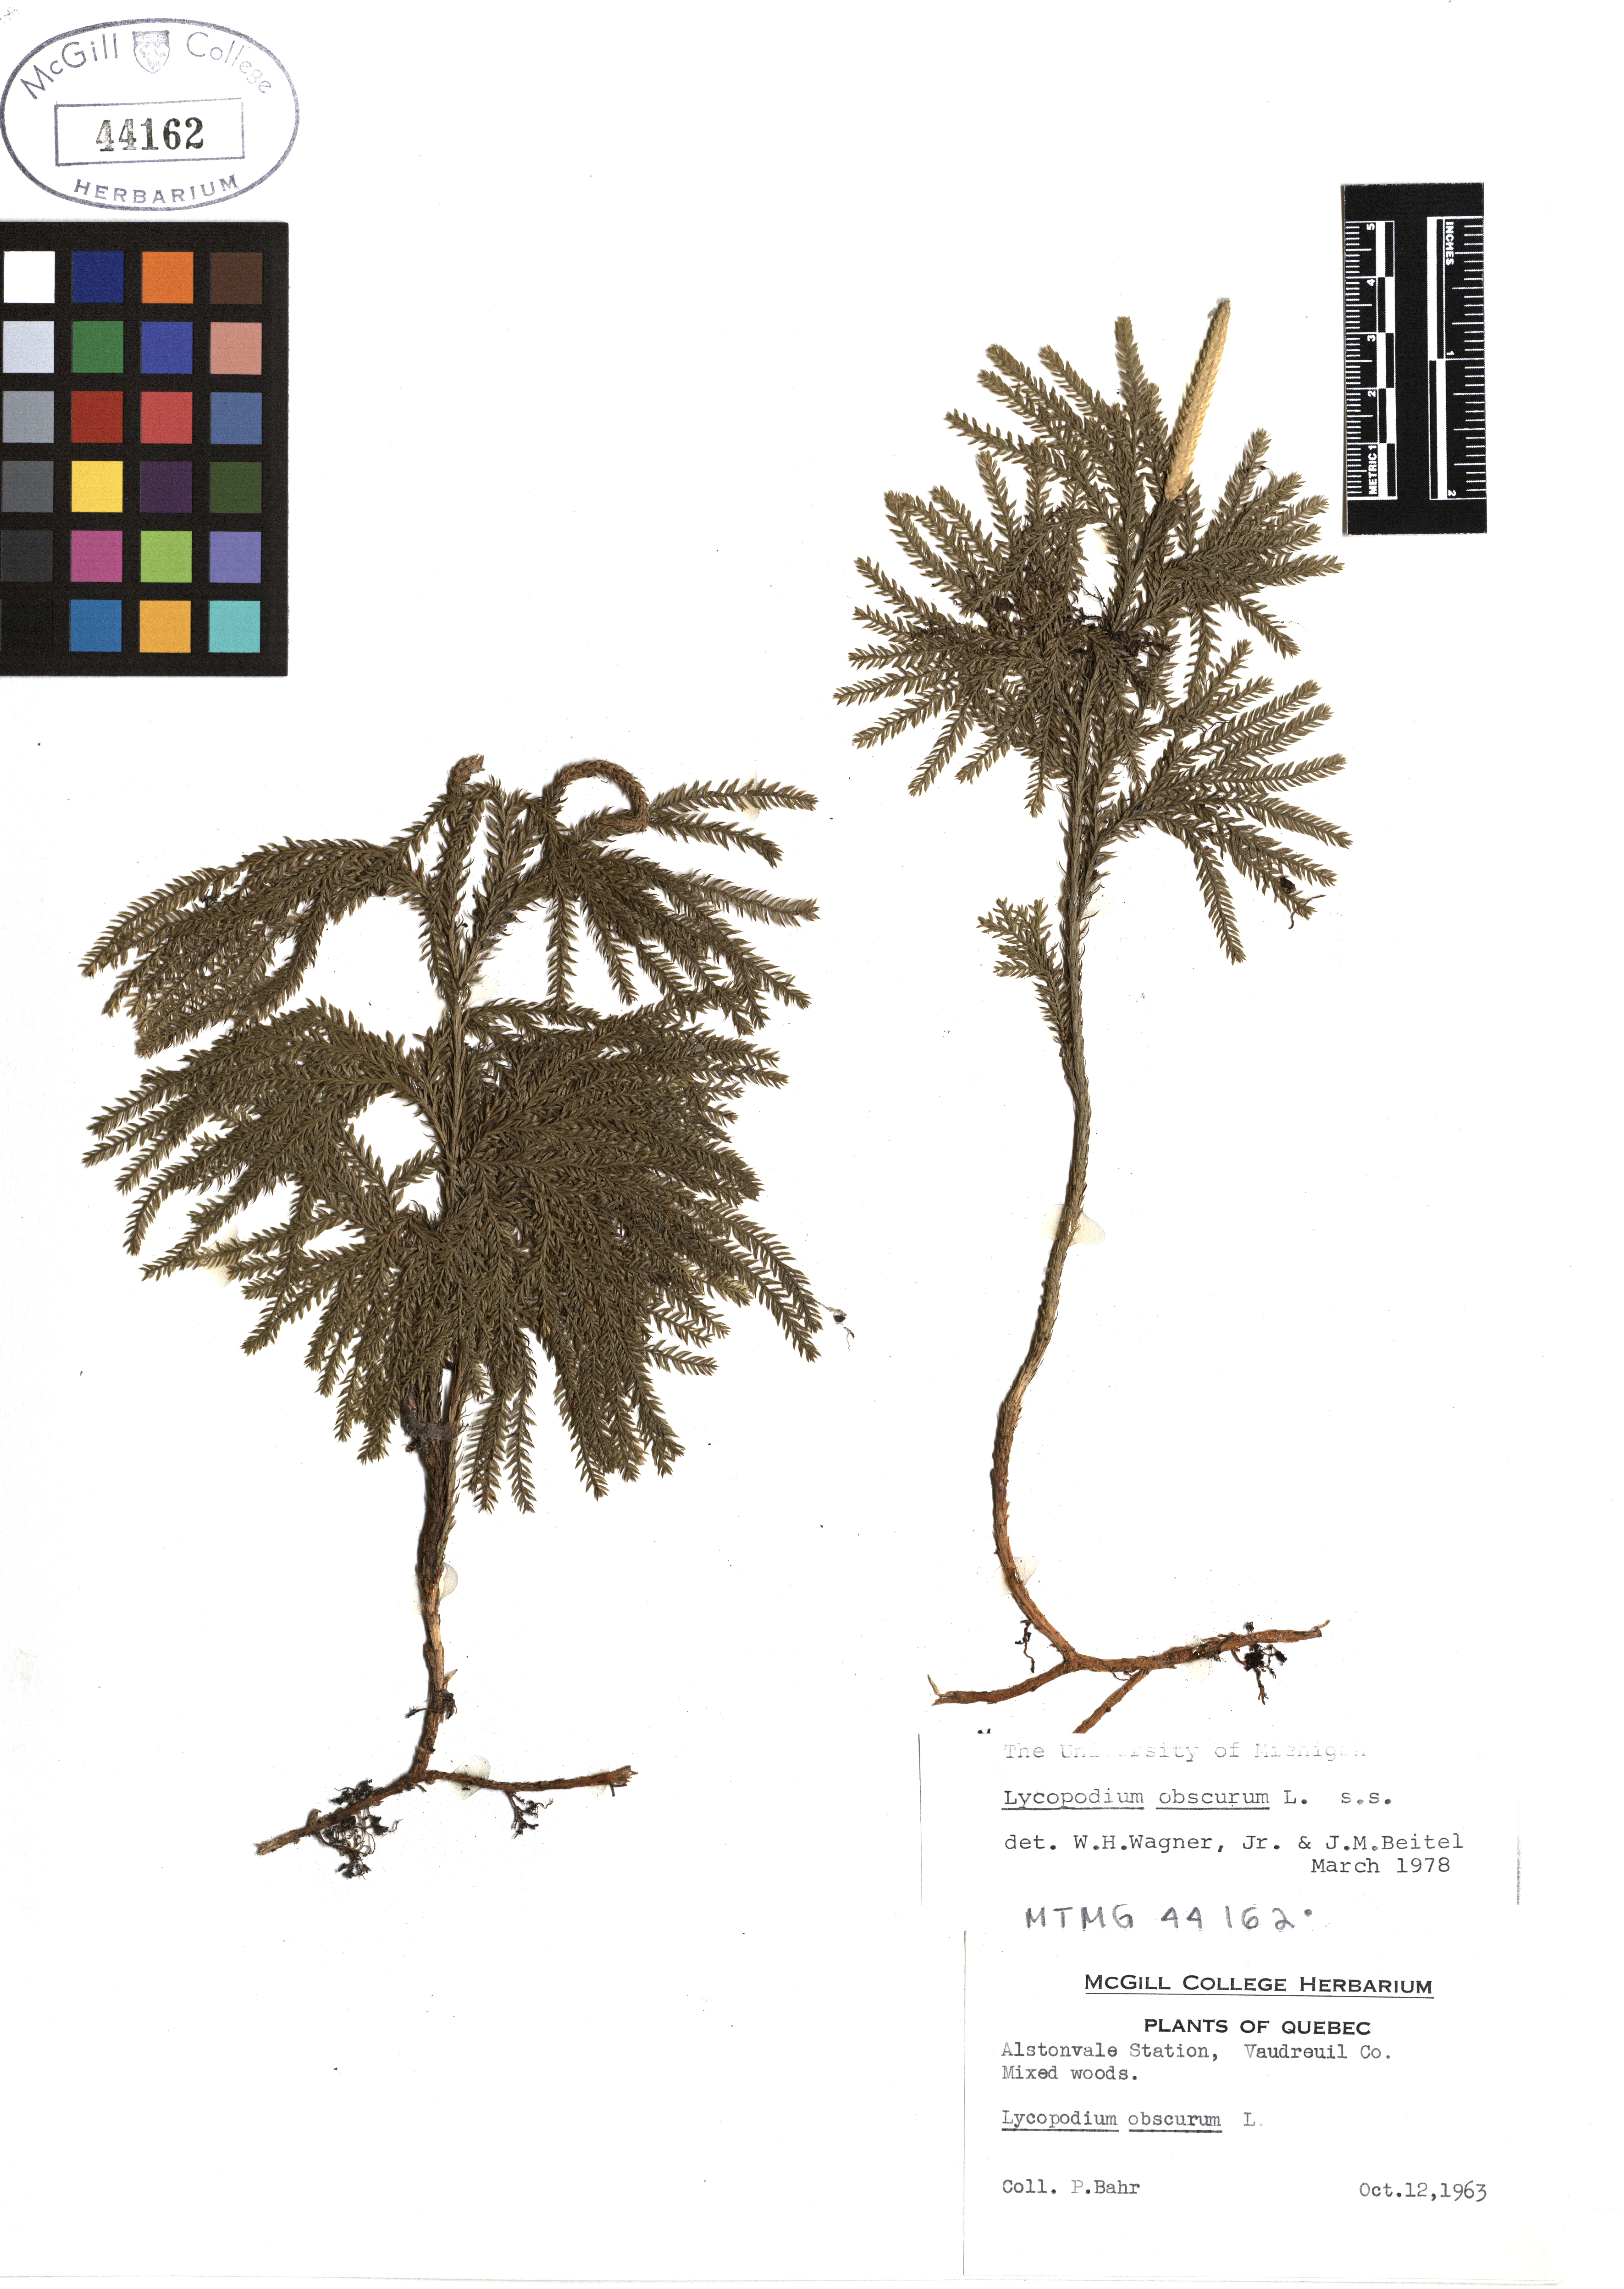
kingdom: Plantae
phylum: Tracheophyta
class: Lycopodiopsida
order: Lycopodiales
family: Lycopodiaceae
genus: Dendrolycopodium
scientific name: Dendrolycopodium obscurum
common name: Common ground-pine
